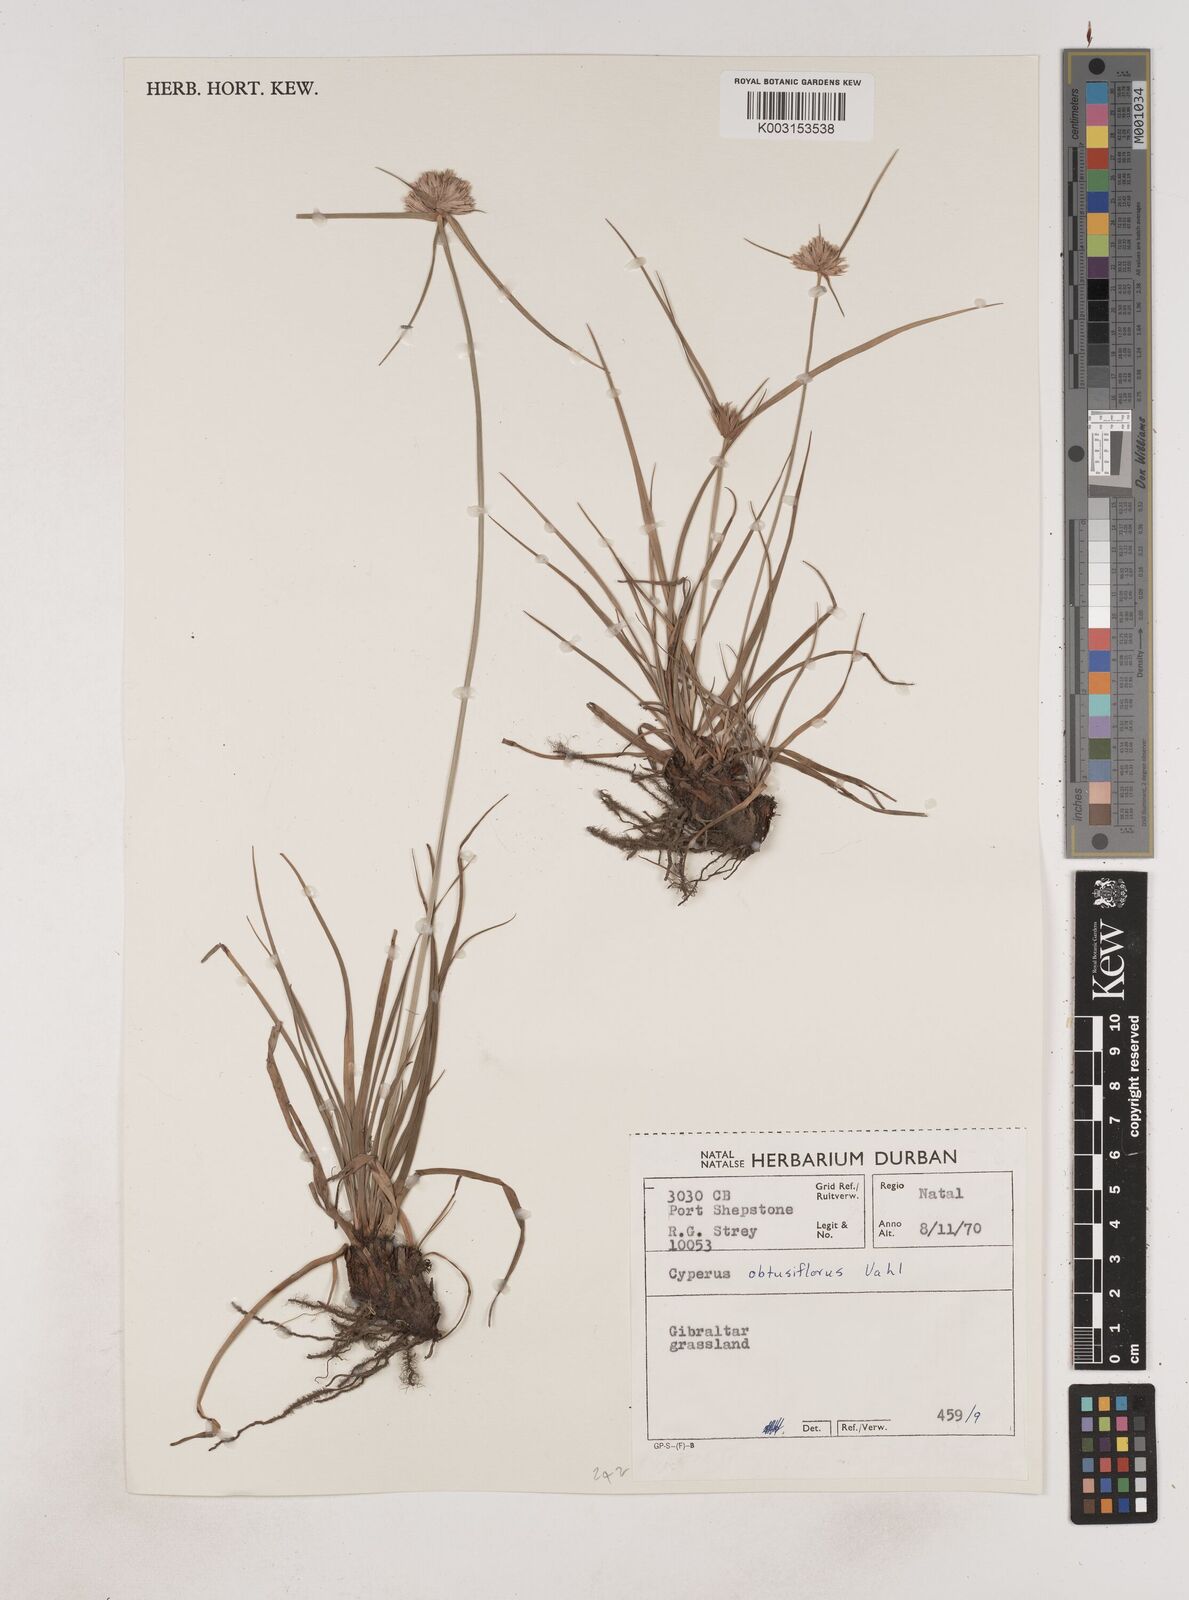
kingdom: Plantae
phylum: Tracheophyta
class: Liliopsida
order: Poales
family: Cyperaceae
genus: Cyperus
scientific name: Cyperus niveus
